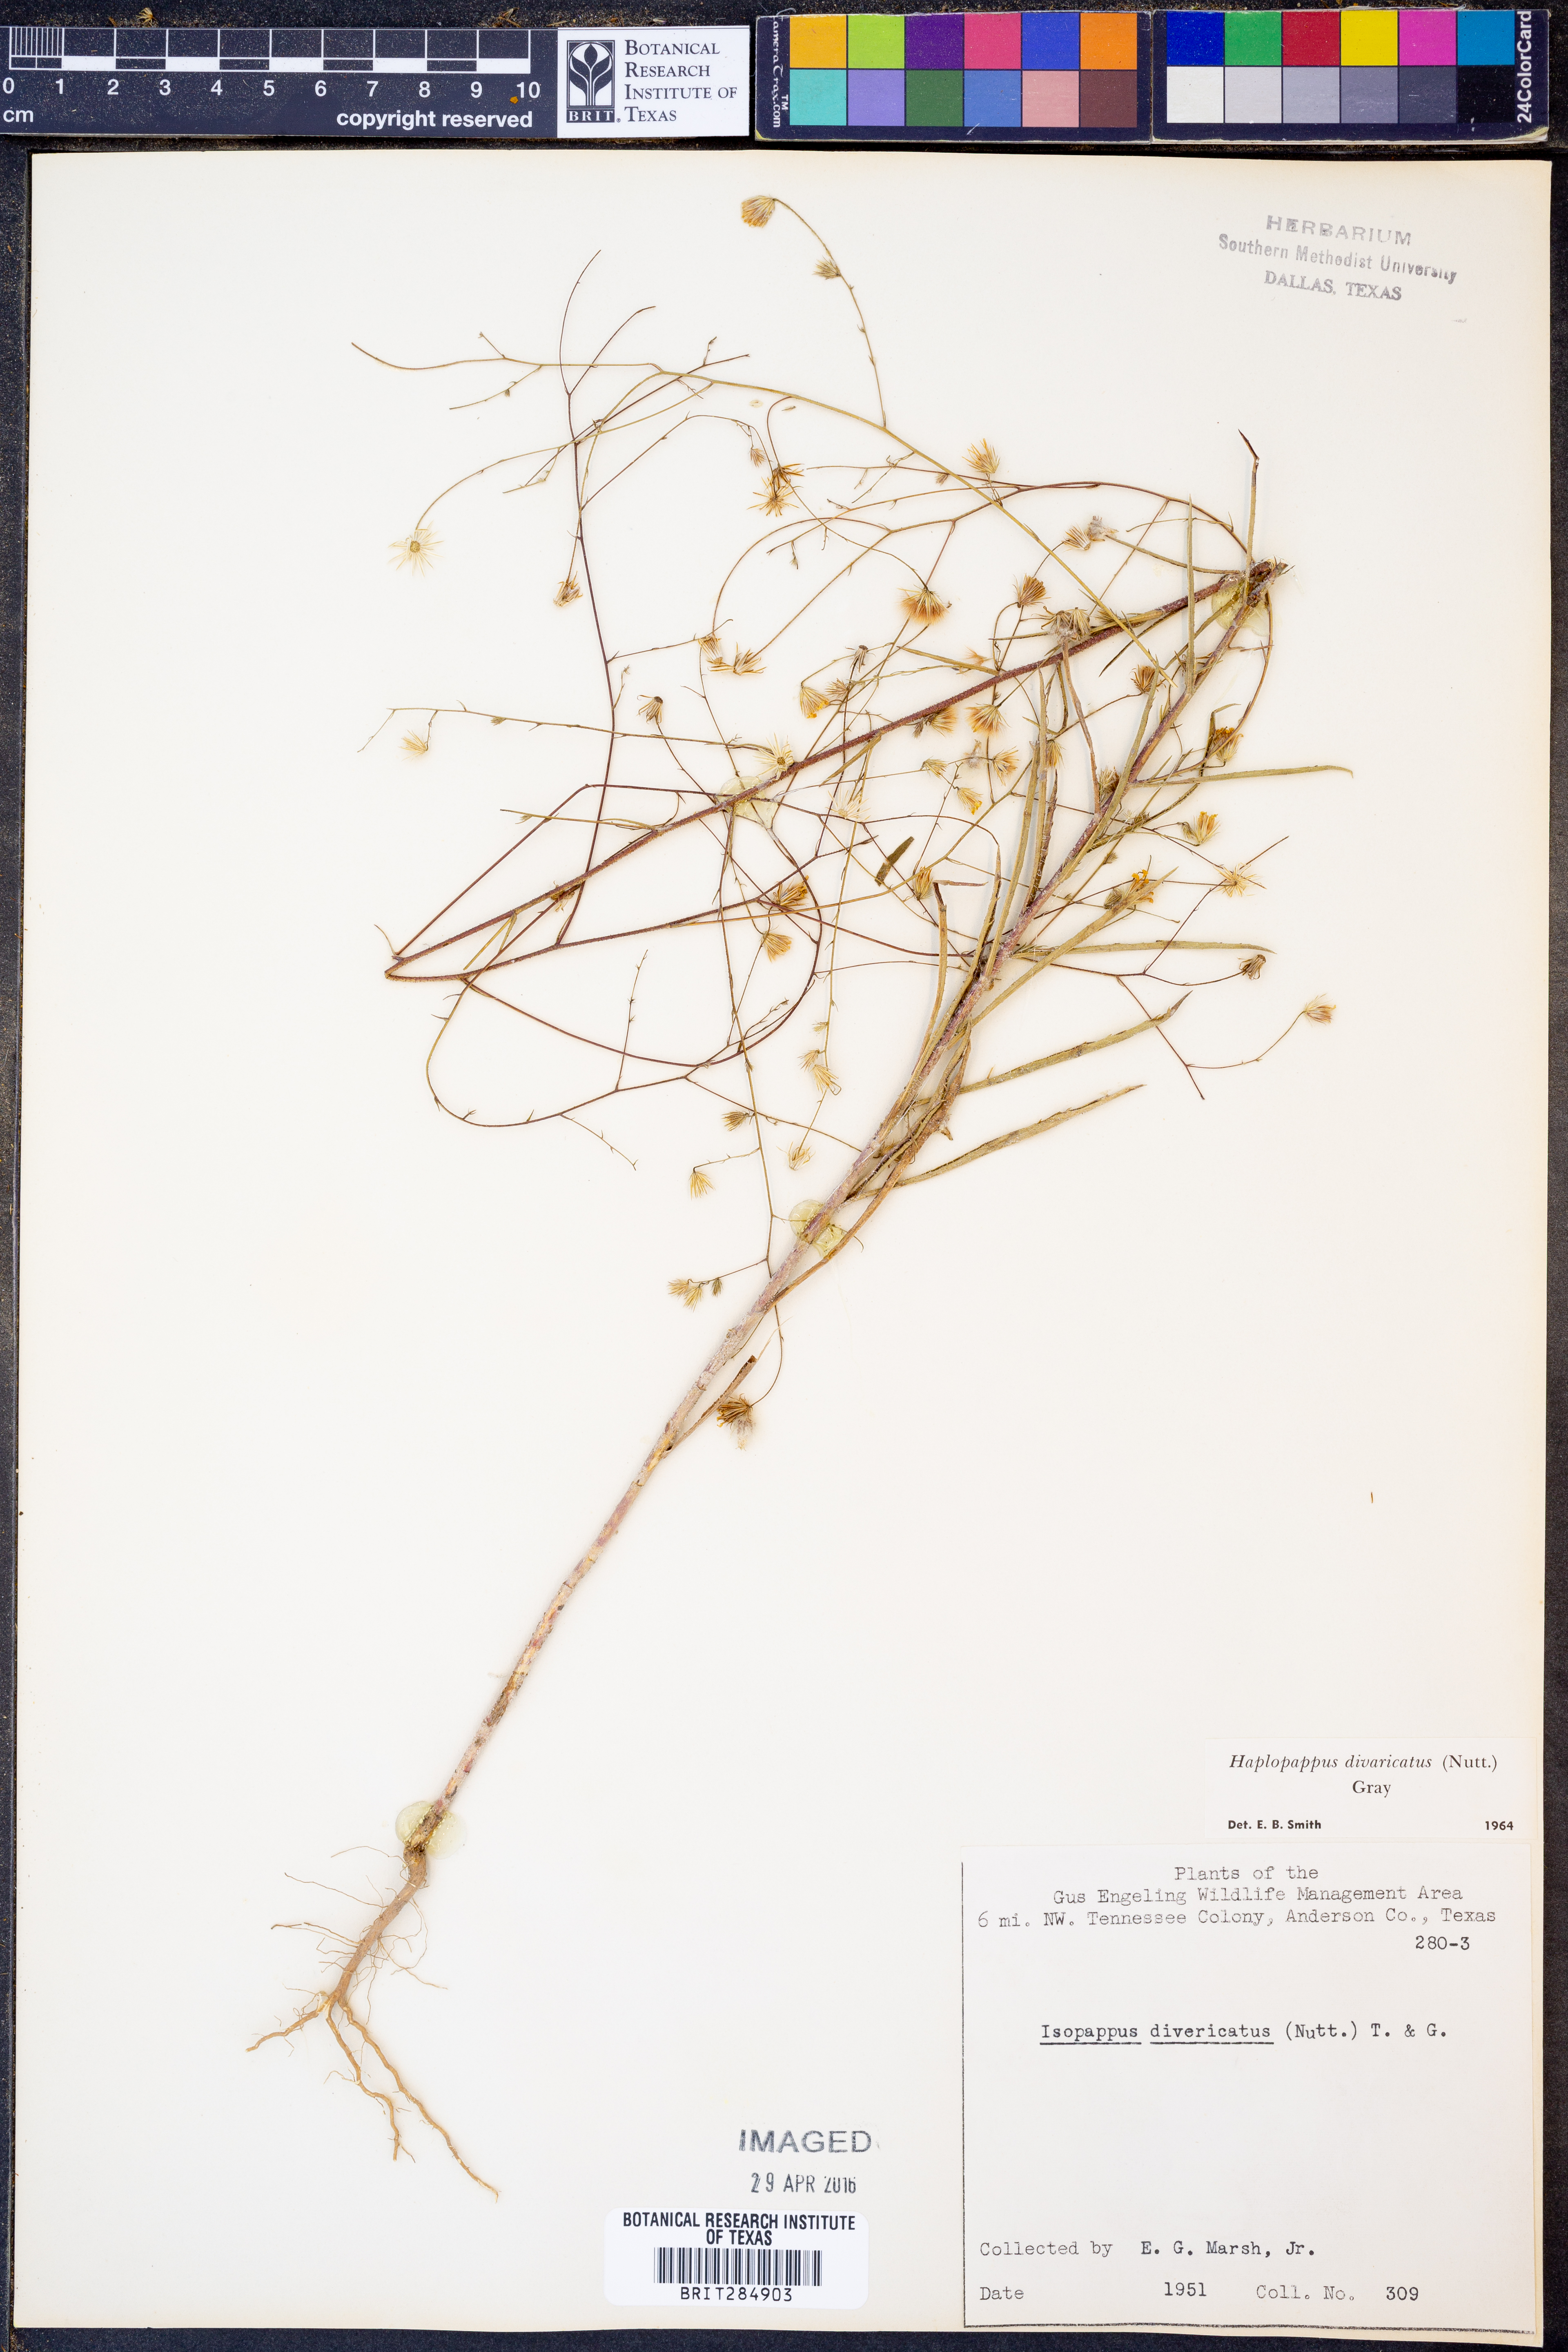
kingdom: Plantae
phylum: Tracheophyta
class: Magnoliopsida
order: Asterales
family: Asteraceae
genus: Croptilon
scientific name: Croptilon divaricatum
